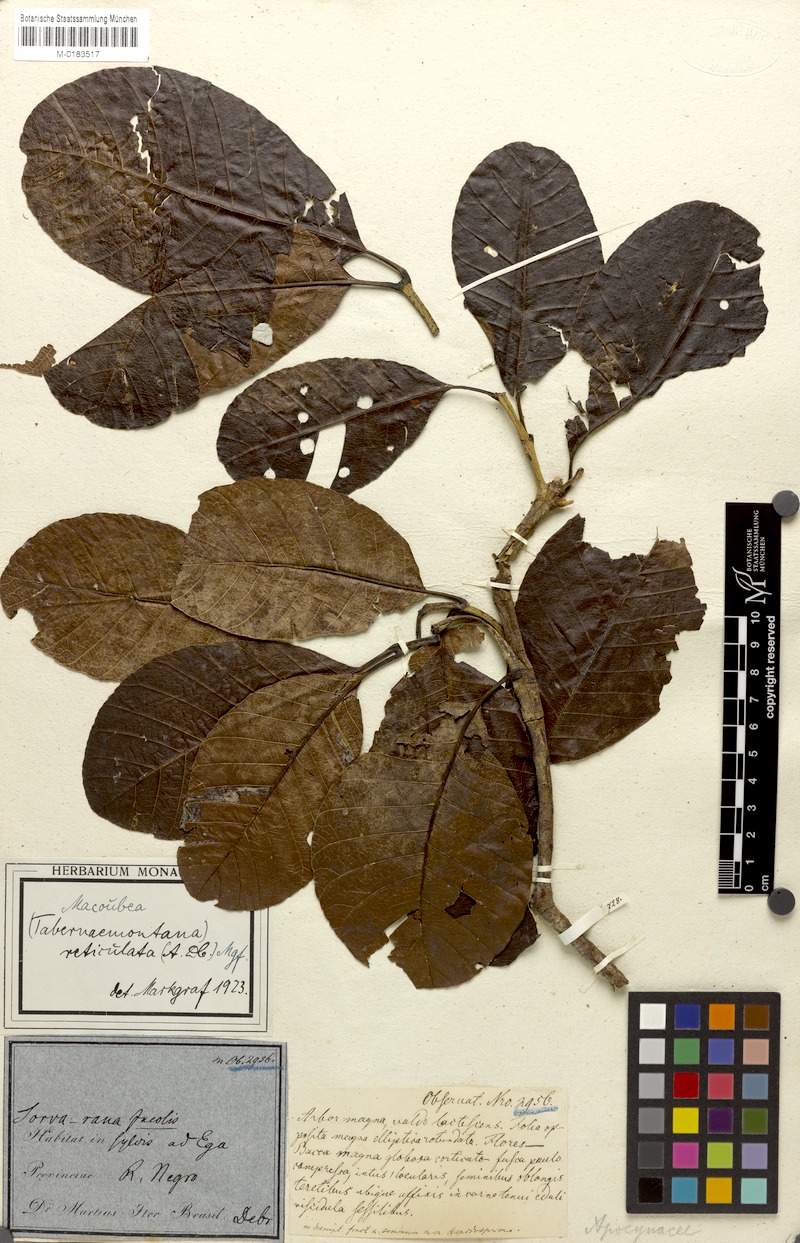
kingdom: Plantae
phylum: Tracheophyta
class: Magnoliopsida
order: Gentianales
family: Apocynaceae
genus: Macoubea
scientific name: Macoubea guianensis
